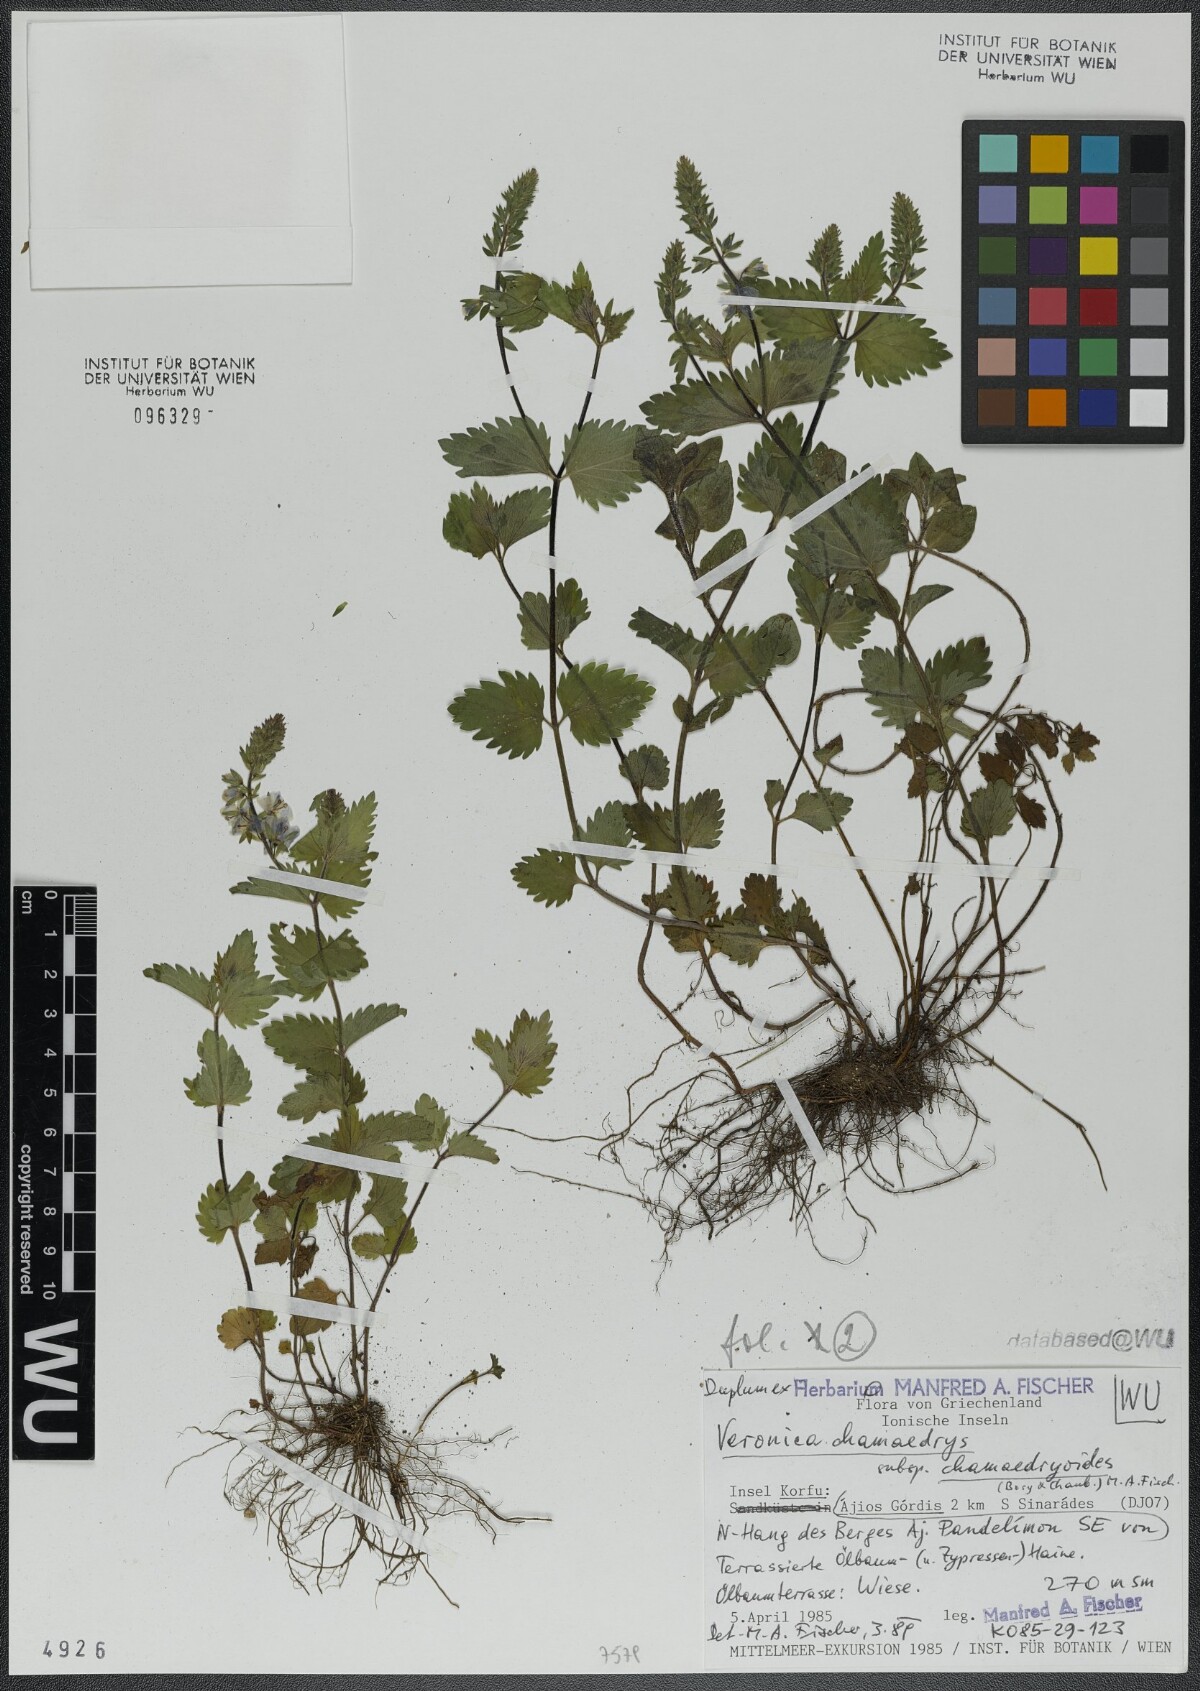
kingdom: Plantae
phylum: Tracheophyta
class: Magnoliopsida
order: Lamiales
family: Plantaginaceae
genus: Veronica
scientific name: Veronica chamaedrys
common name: Germander speedwell
